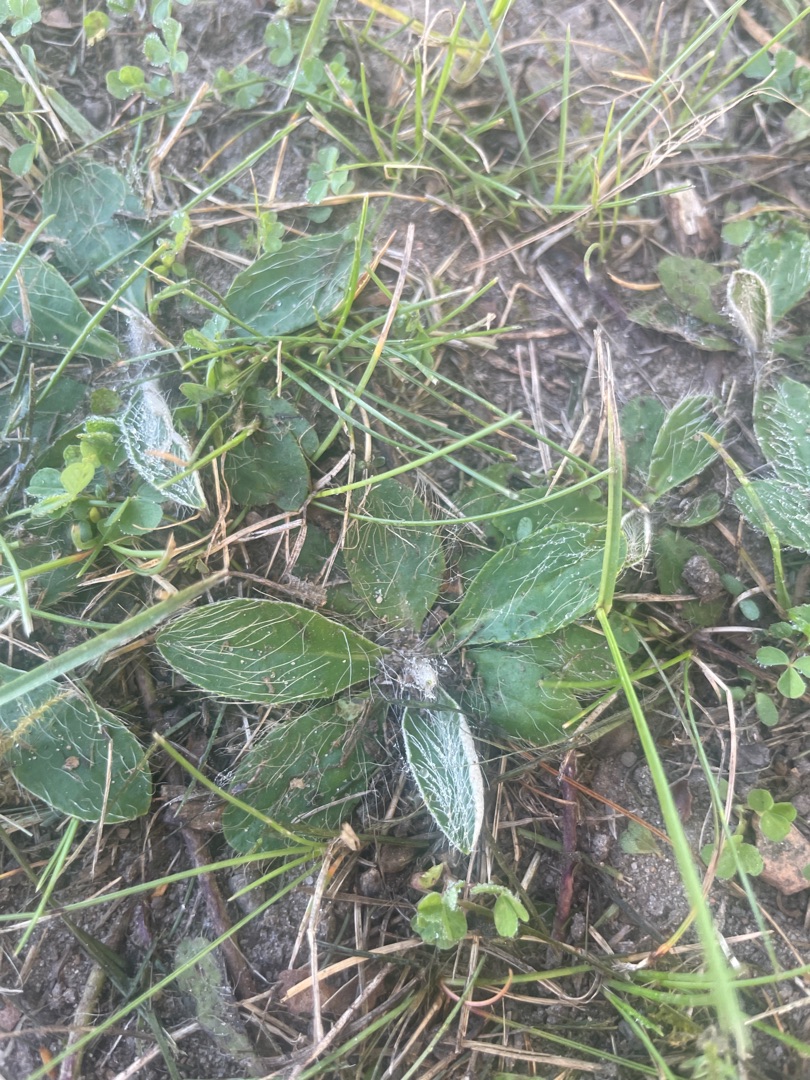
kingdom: Plantae
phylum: Tracheophyta
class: Magnoliopsida
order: Asterales
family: Asteraceae
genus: Pilosella
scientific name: Pilosella officinarum
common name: Håret høgeurt
